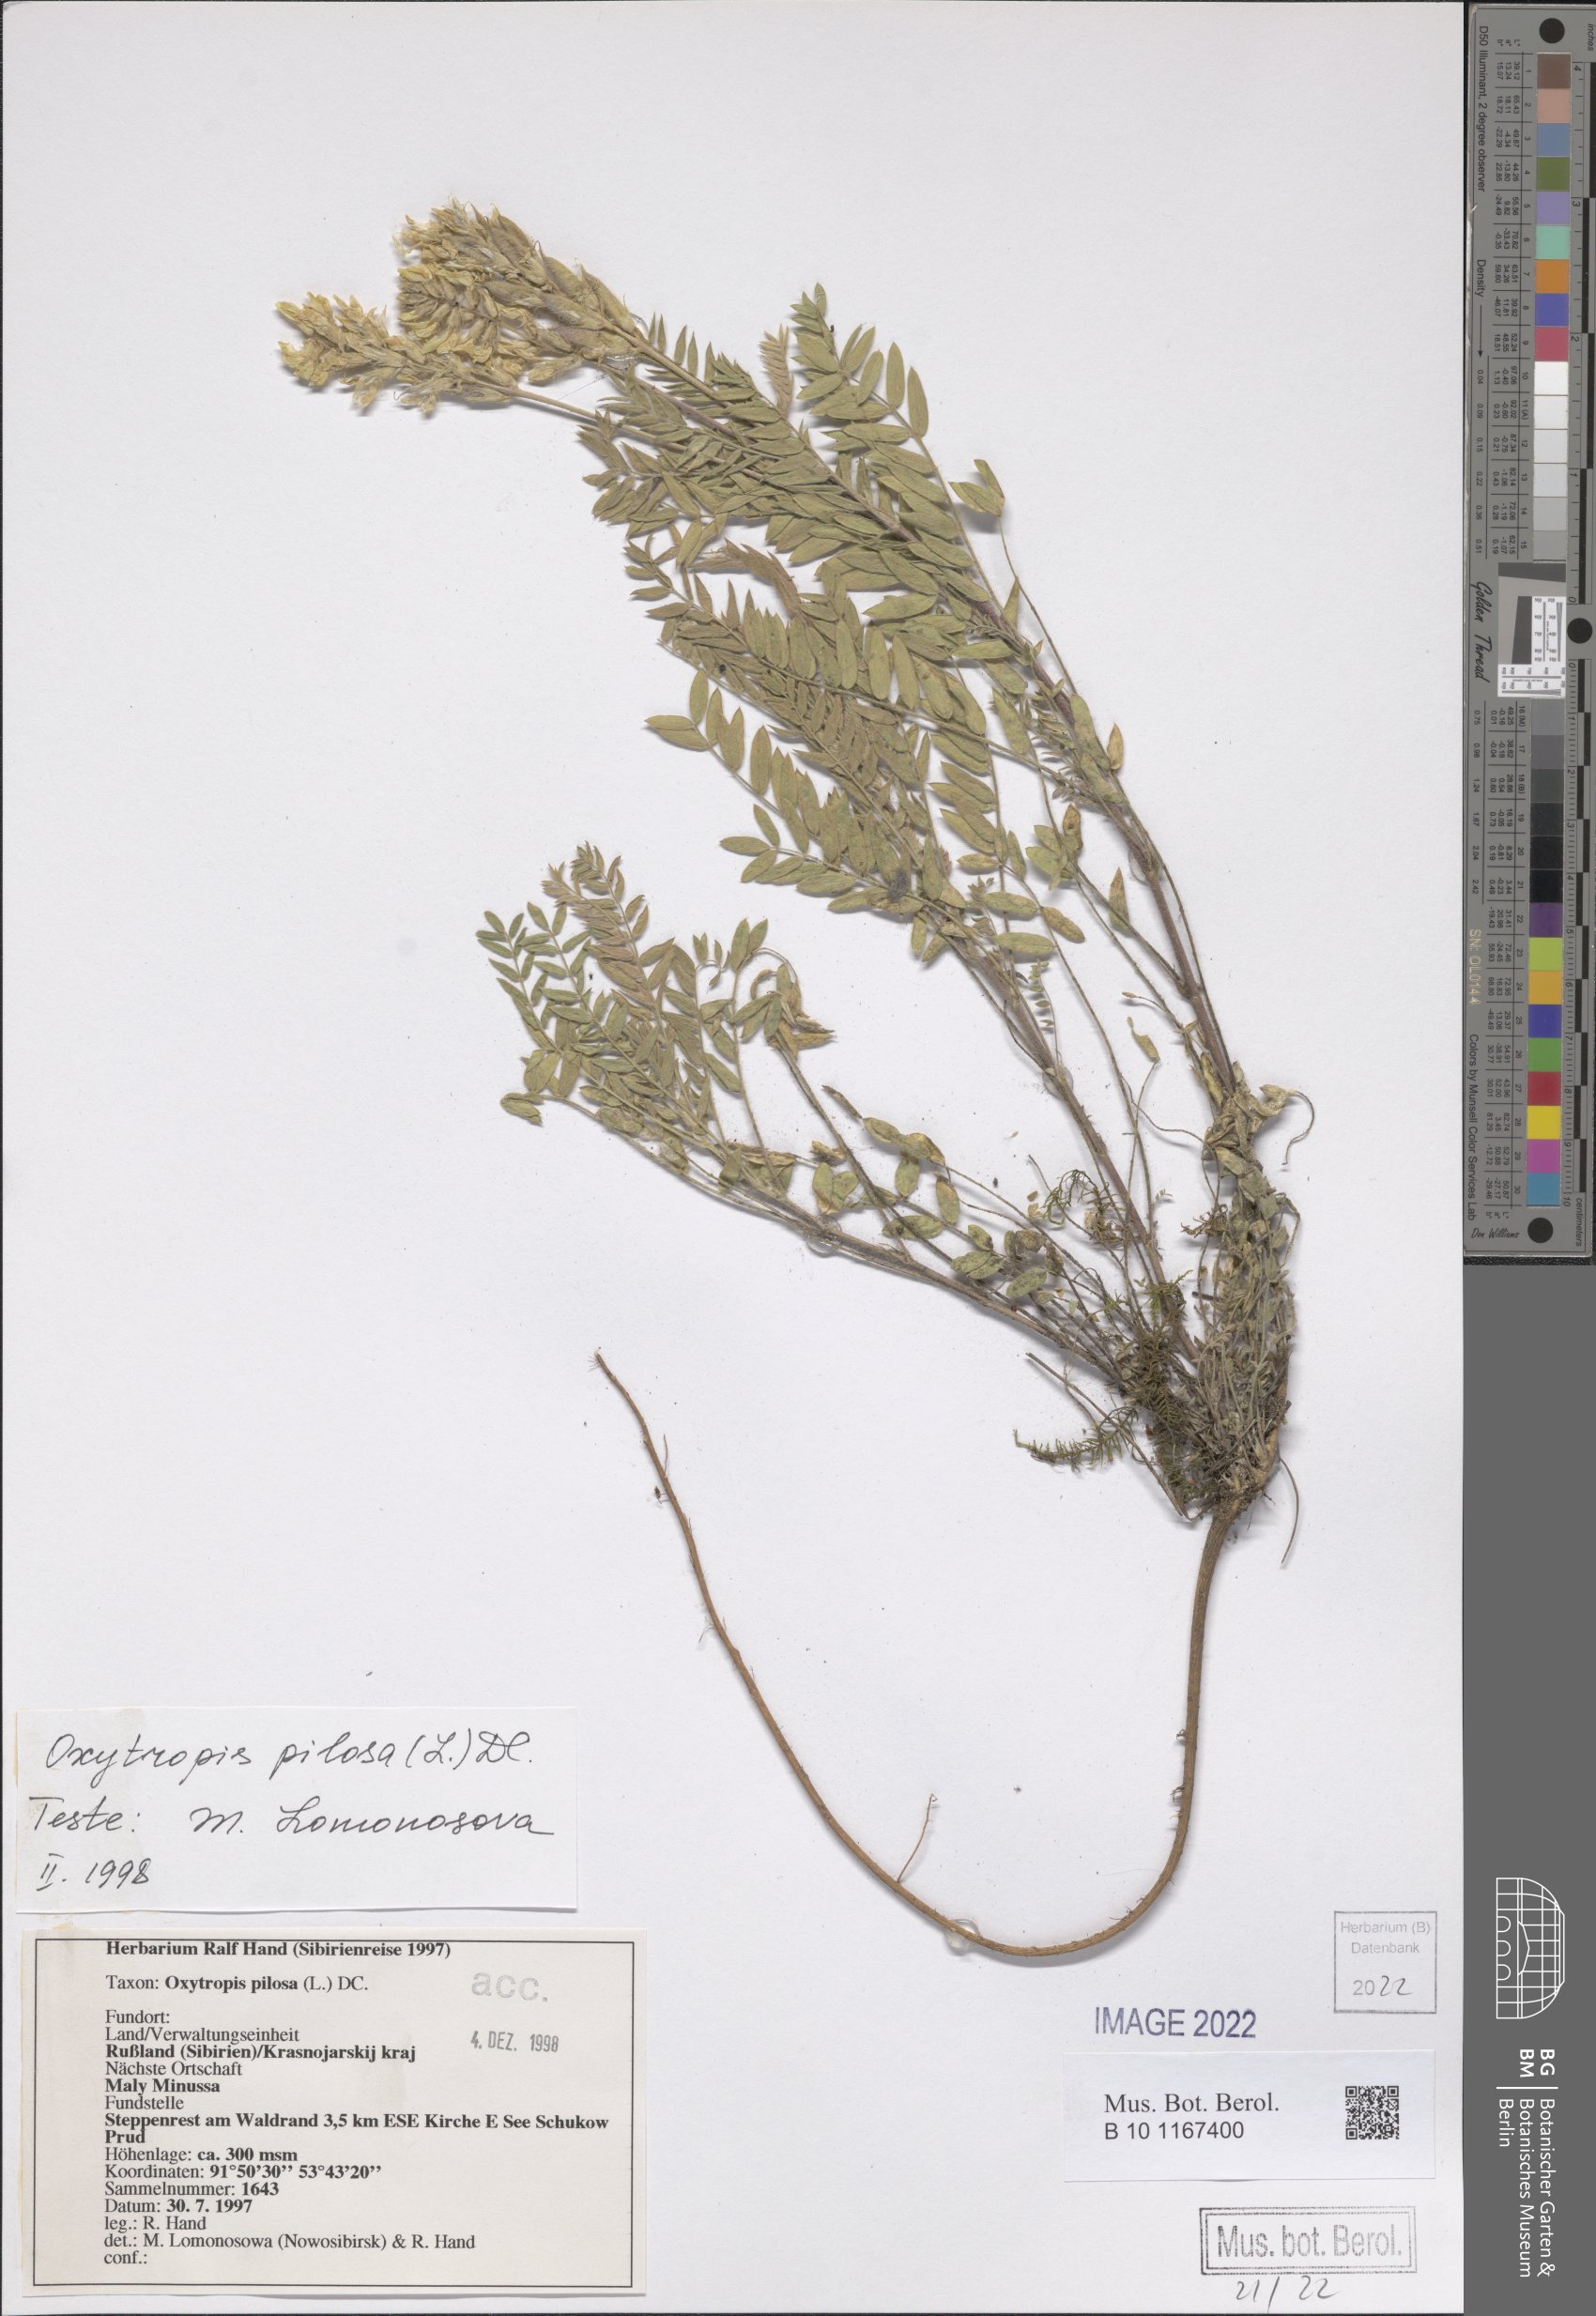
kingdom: Plantae
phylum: Tracheophyta
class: Magnoliopsida
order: Fabales
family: Fabaceae
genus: Oxytropis
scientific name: Oxytropis pilosa
